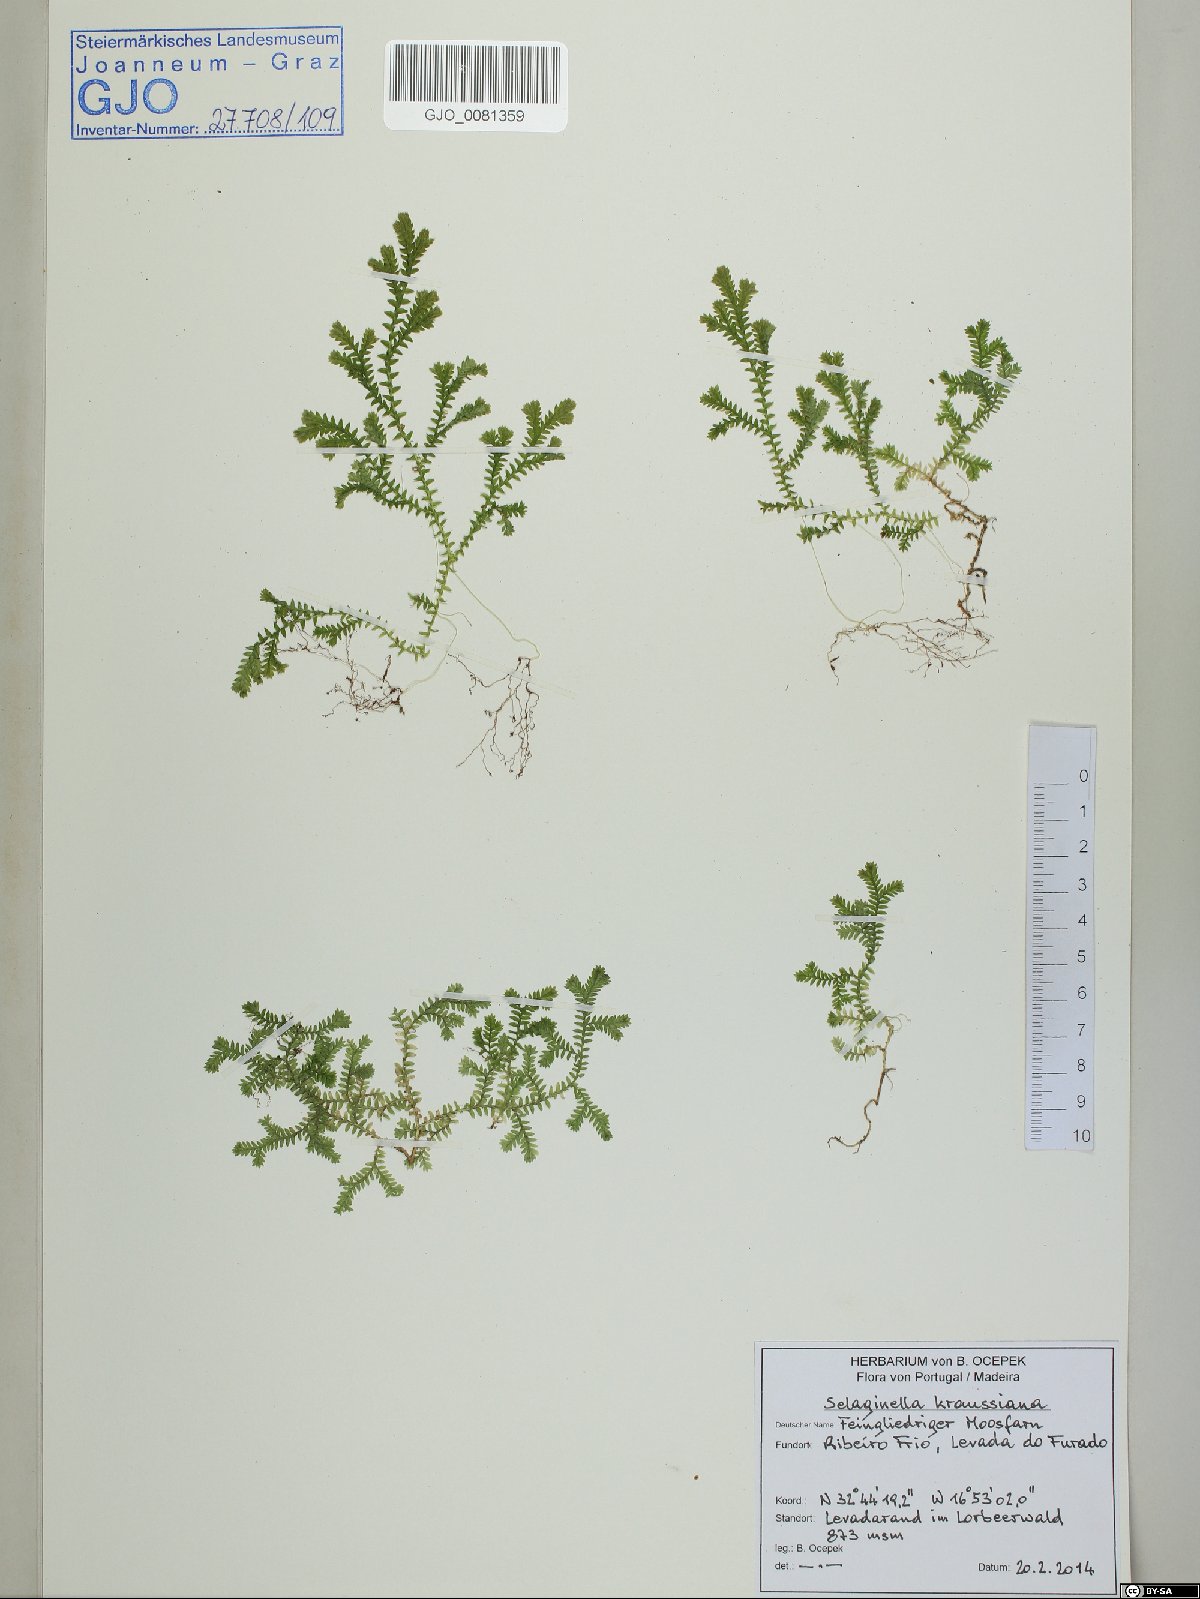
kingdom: Plantae
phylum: Tracheophyta
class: Lycopodiopsida
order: Selaginellales
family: Selaginellaceae
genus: Selaginella
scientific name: Selaginella kraussiana
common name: Krauss' spikemoss
